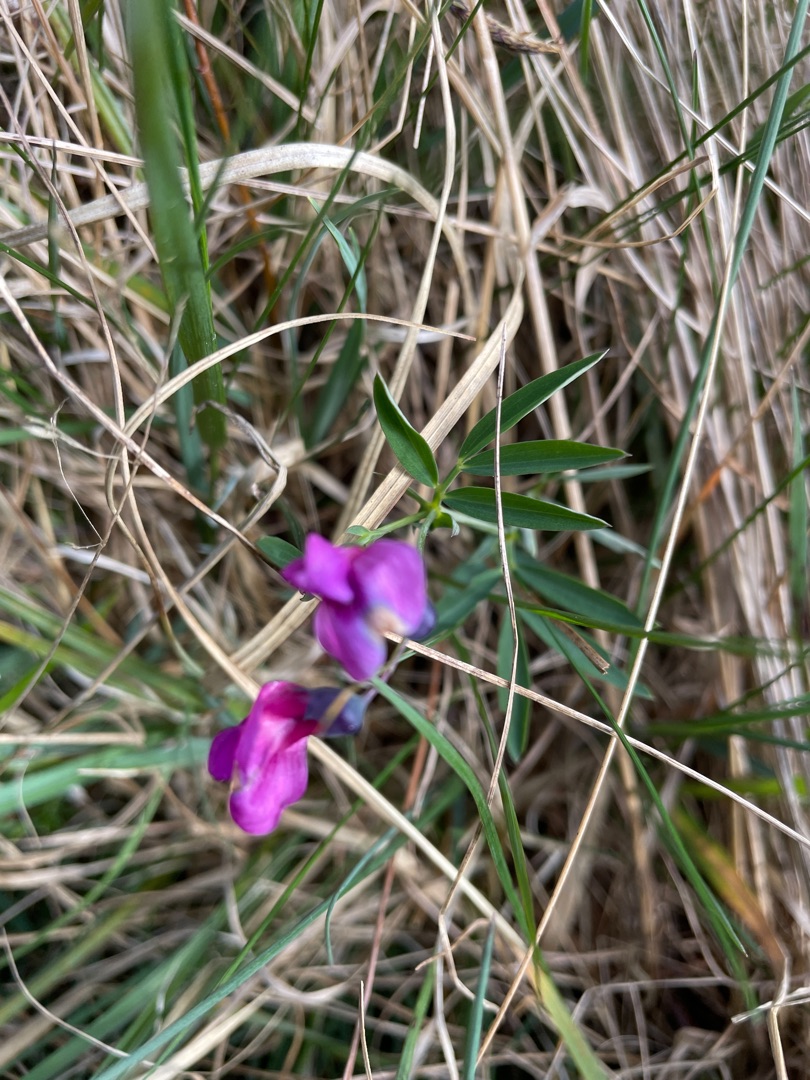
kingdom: Plantae
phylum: Tracheophyta
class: Magnoliopsida
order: Fabales
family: Fabaceae
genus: Lathyrus
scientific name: Lathyrus linifolius
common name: Krat-fladbælg
